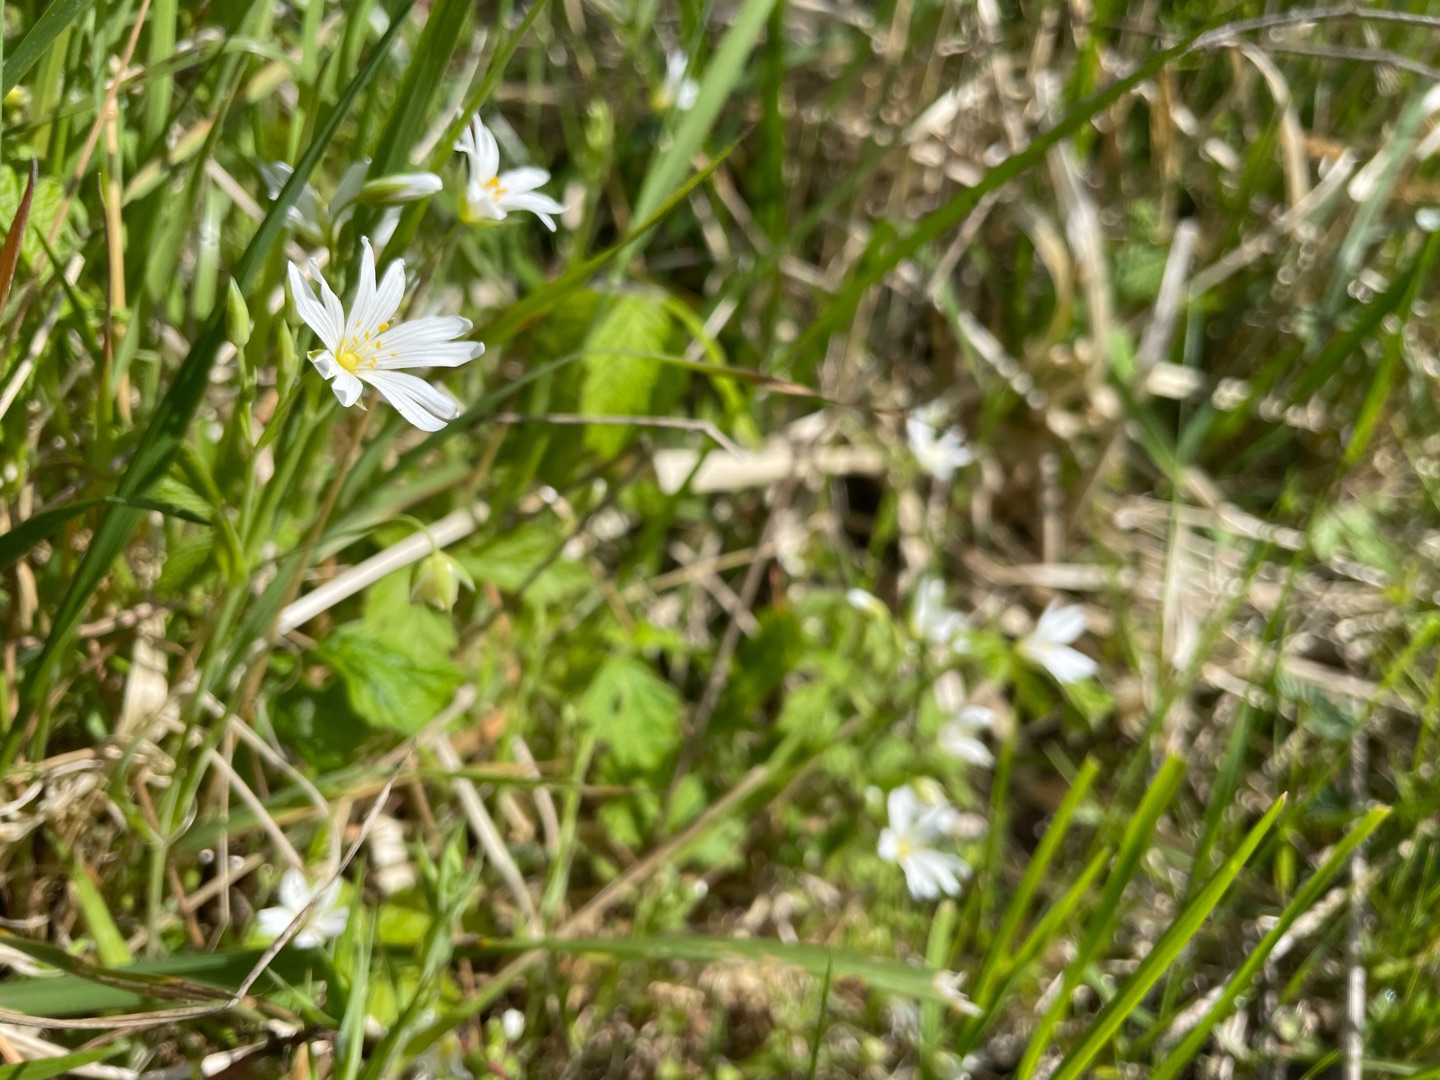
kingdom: Plantae
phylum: Tracheophyta
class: Magnoliopsida
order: Caryophyllales
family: Caryophyllaceae
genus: Rabelera
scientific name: Rabelera holostea
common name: Stor fladstjerne
